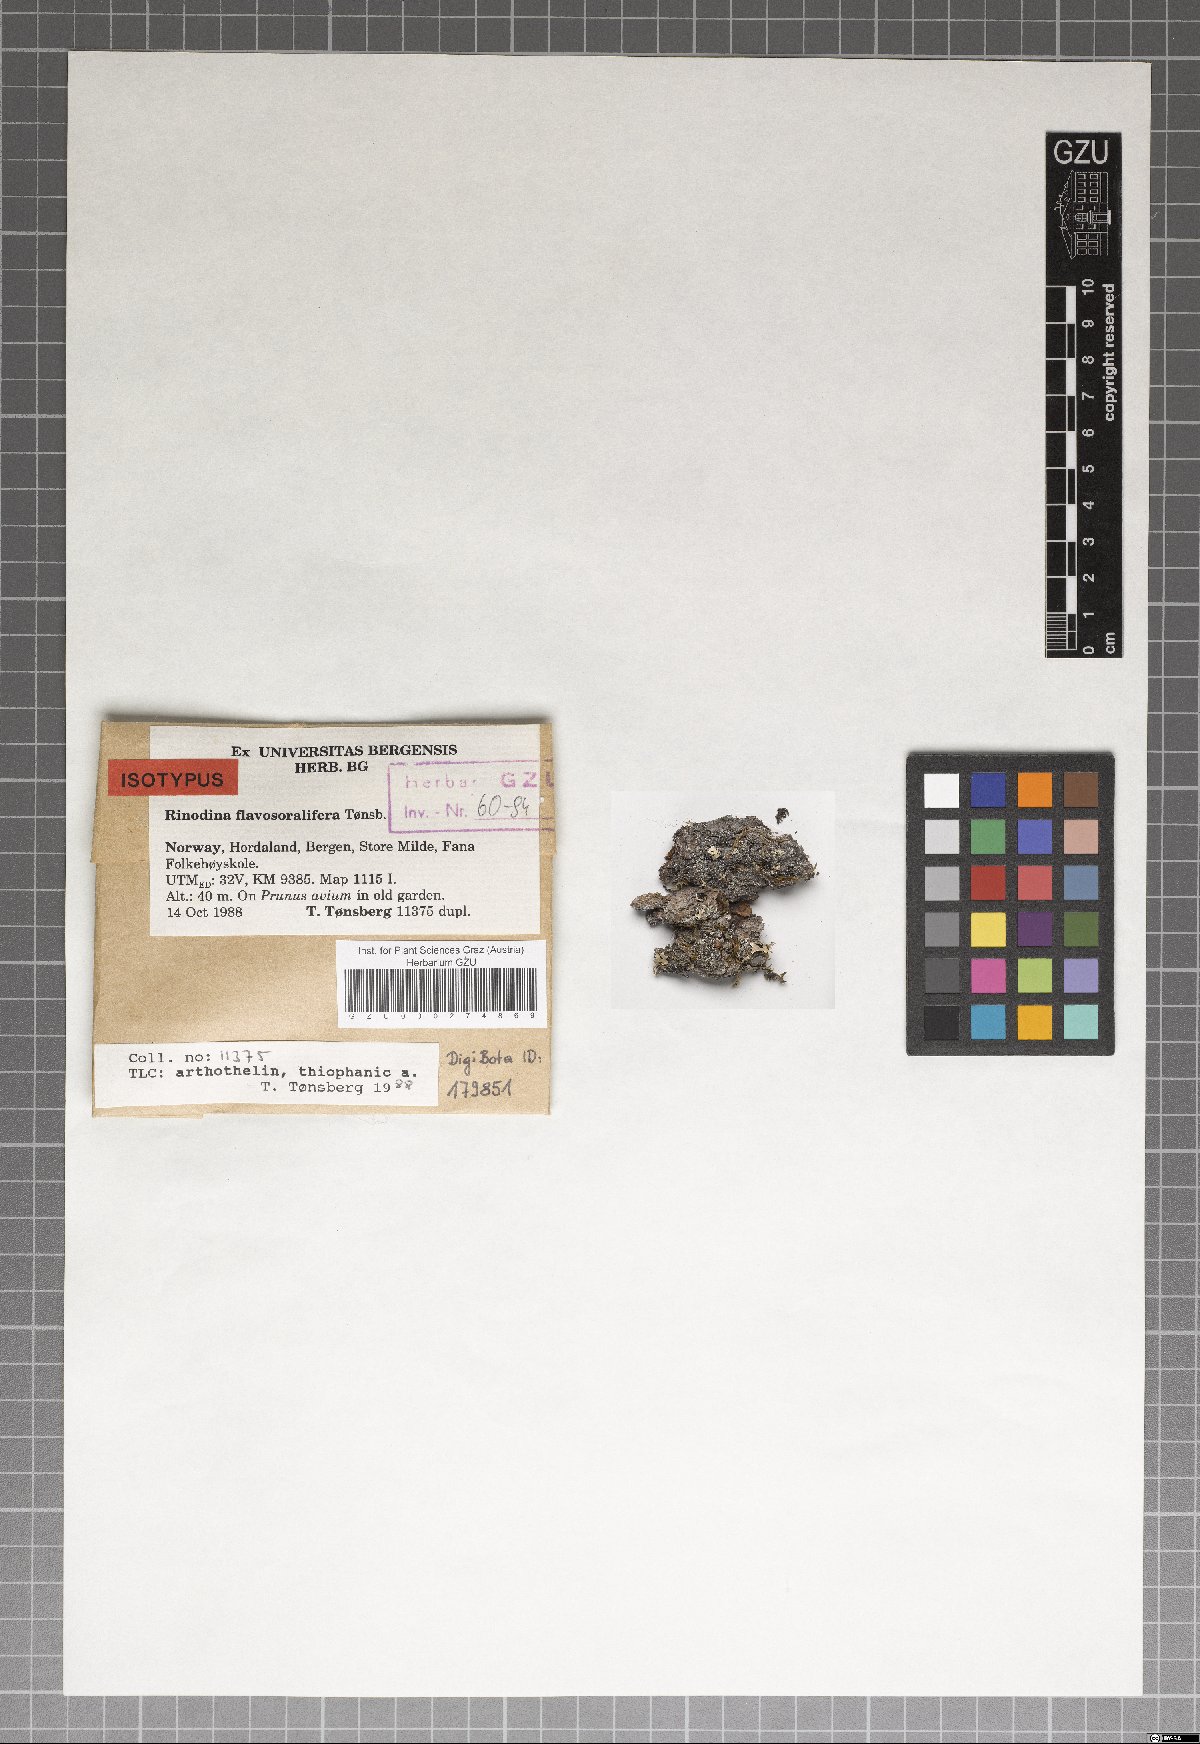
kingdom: Fungi
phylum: Ascomycota
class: Lecanoromycetes
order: Caliciales
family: Physciaceae
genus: Rinodina
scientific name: Rinodina flavosoralifera
